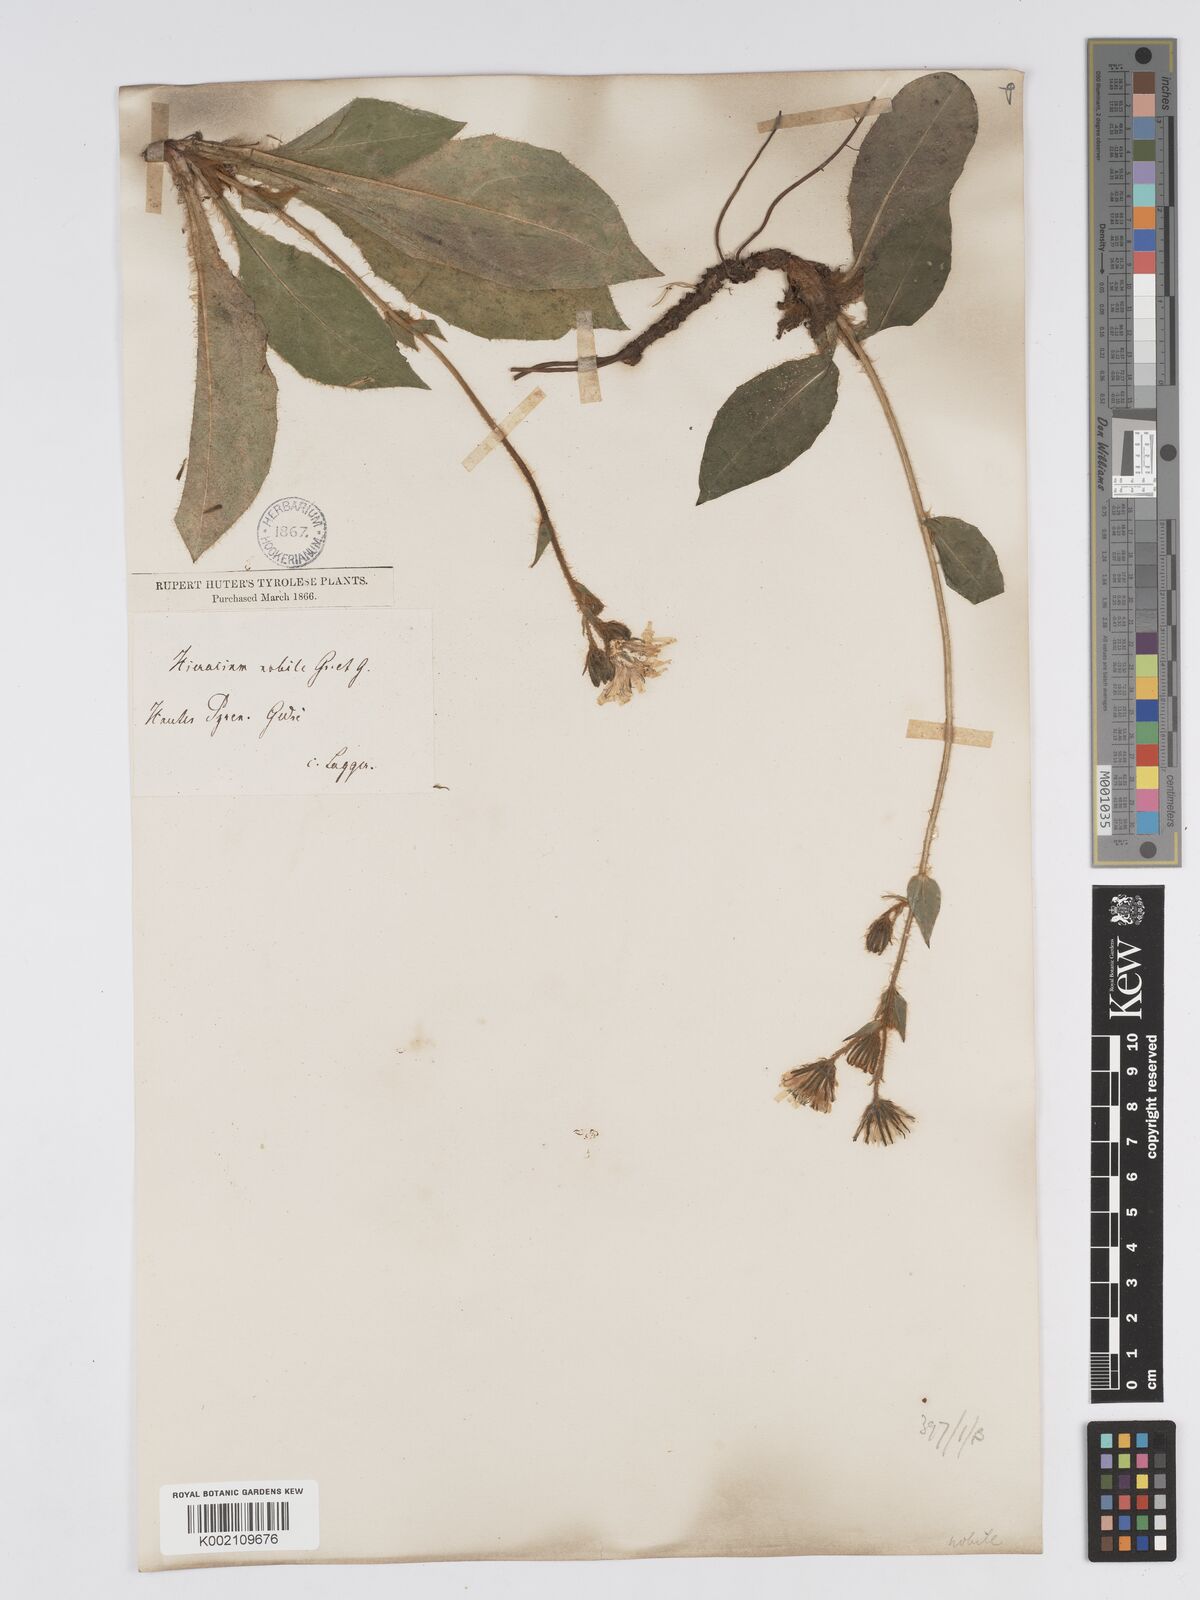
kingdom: Plantae
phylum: Tracheophyta
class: Magnoliopsida
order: Asterales
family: Asteraceae
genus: Hieracium
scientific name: Hieracium nobile
